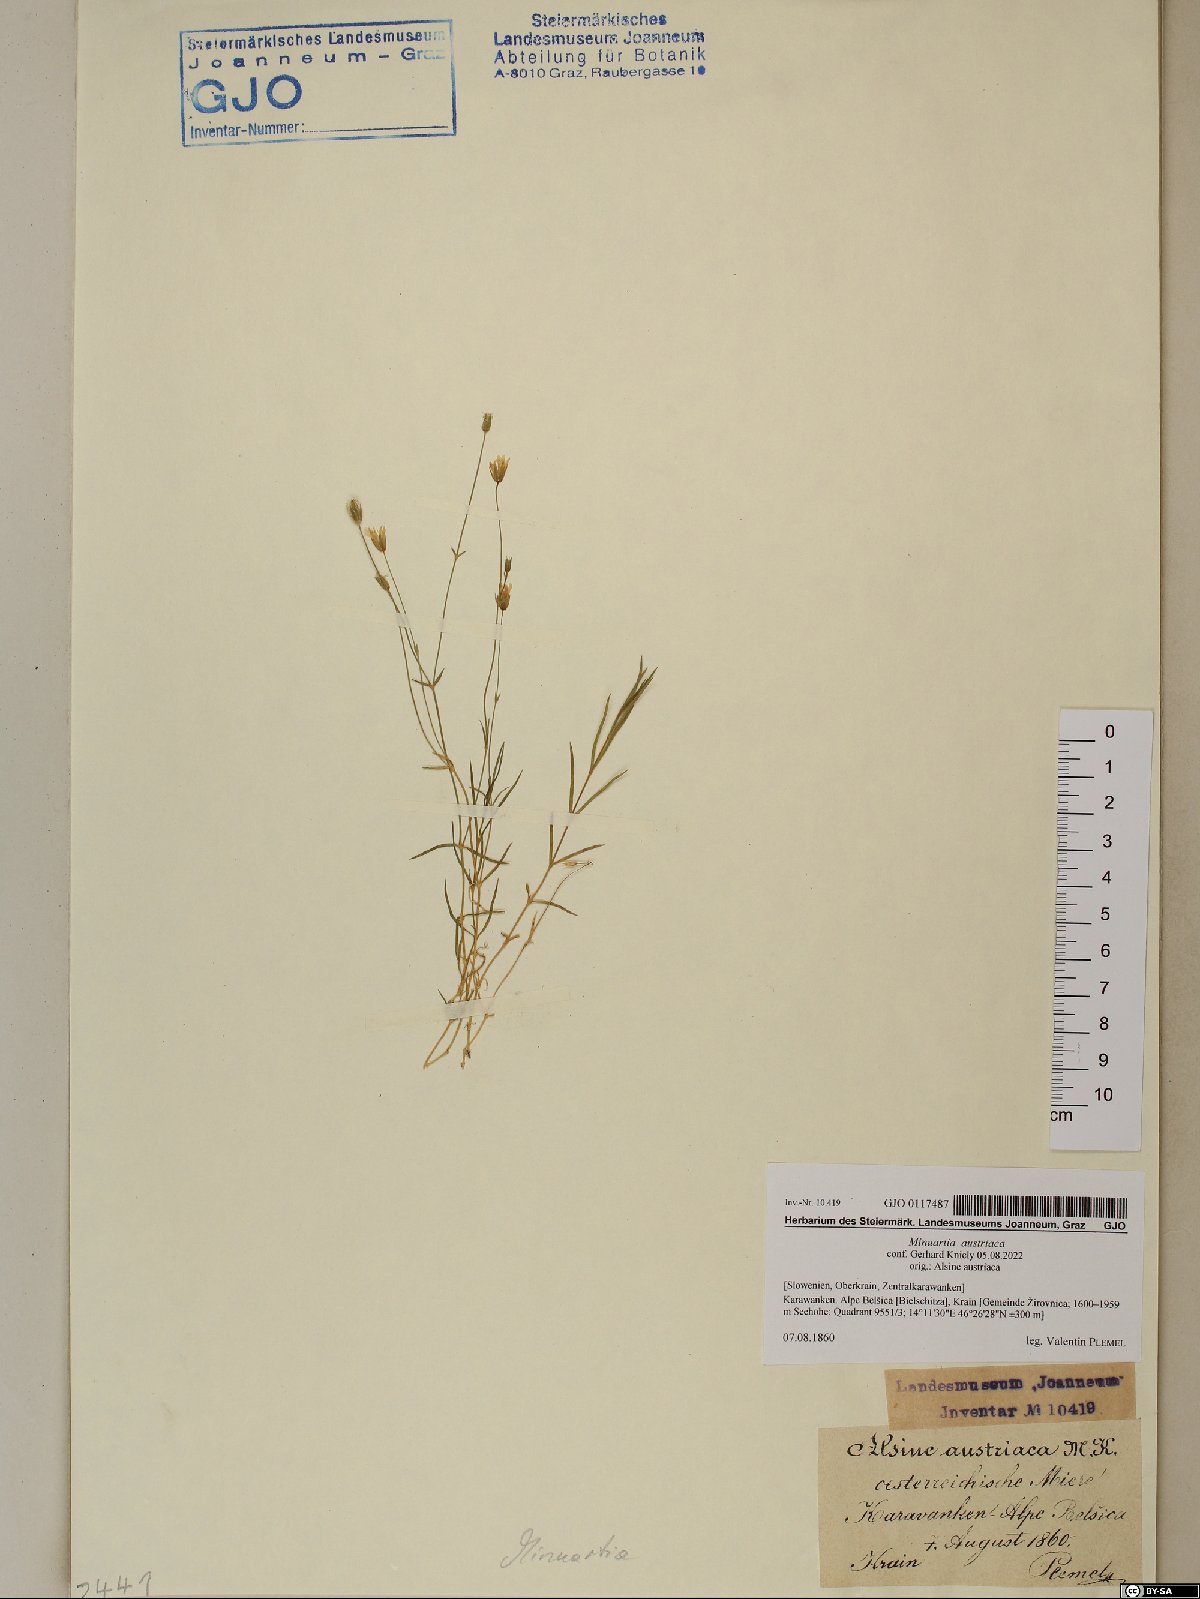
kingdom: Plantae
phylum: Tracheophyta
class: Magnoliopsida
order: Caryophyllales
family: Caryophyllaceae
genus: Sabulina
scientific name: Sabulina austriaca
